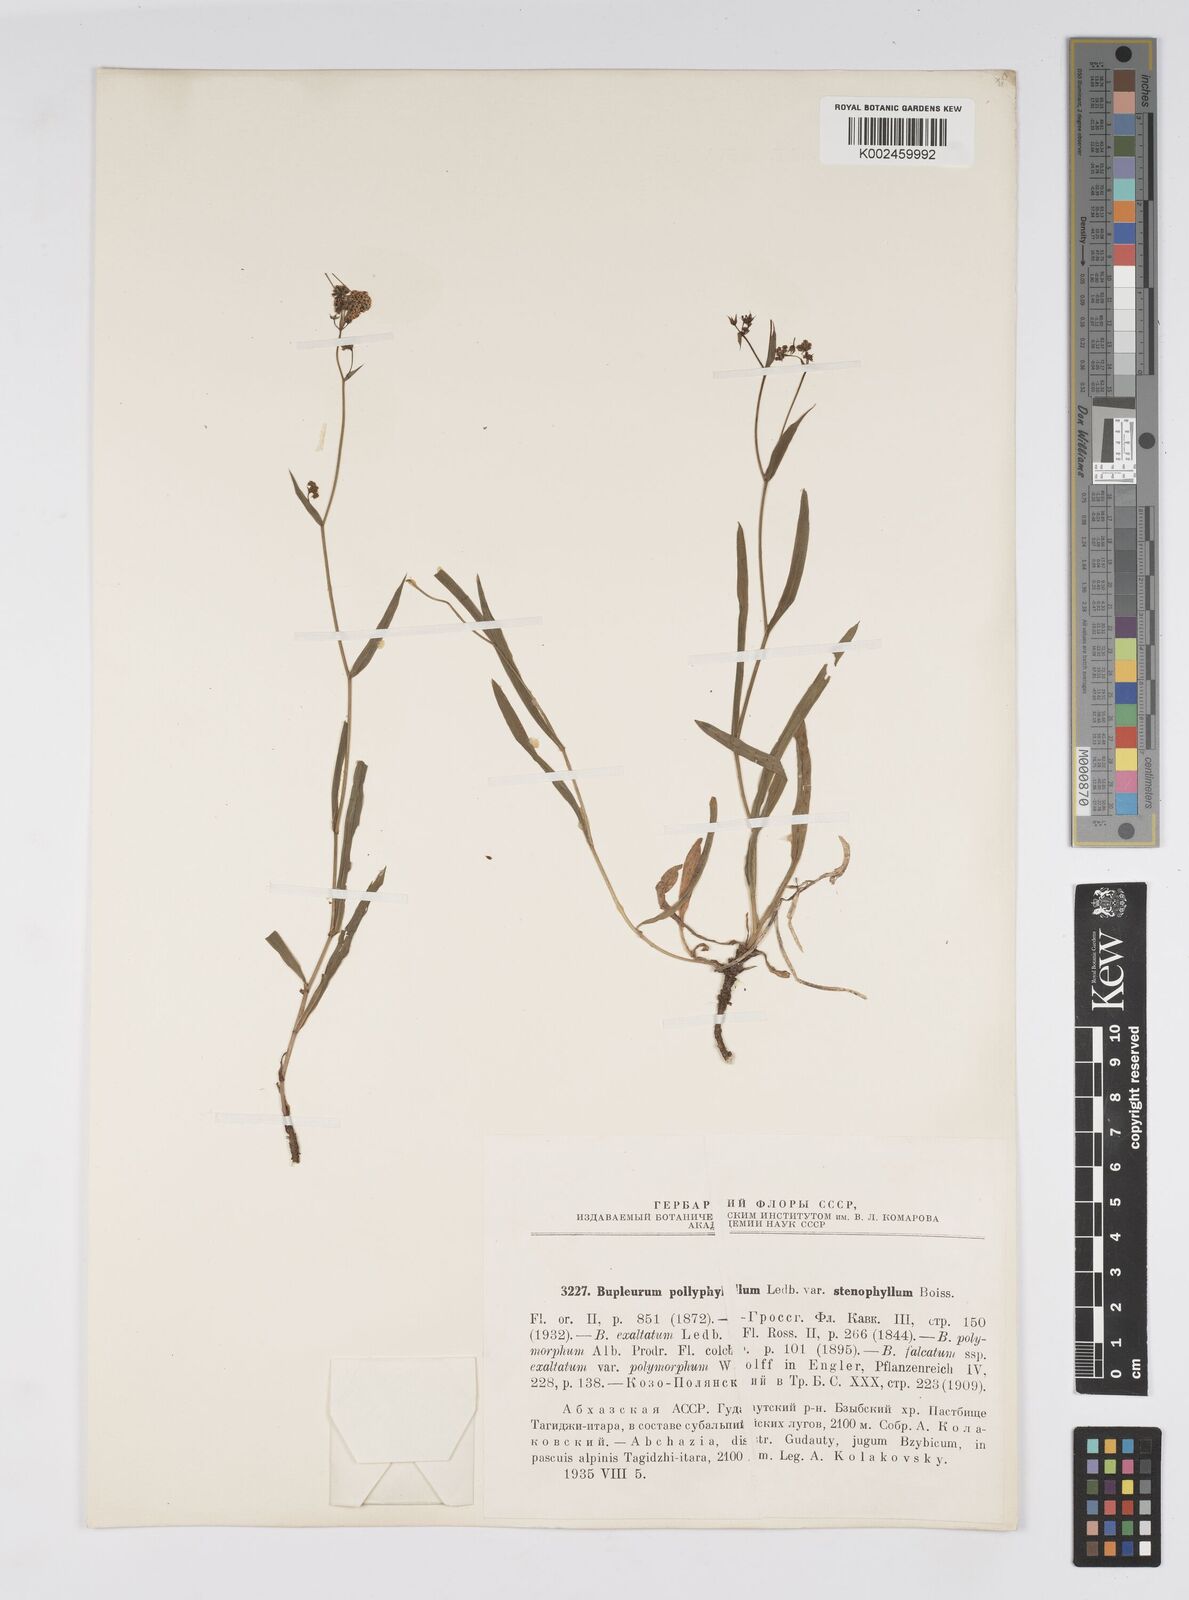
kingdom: Plantae
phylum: Tracheophyta
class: Magnoliopsida
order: Apiales
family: Apiaceae
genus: Bupleurum
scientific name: Bupleurum falcatum
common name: Sickle-leaved hare's-ear
